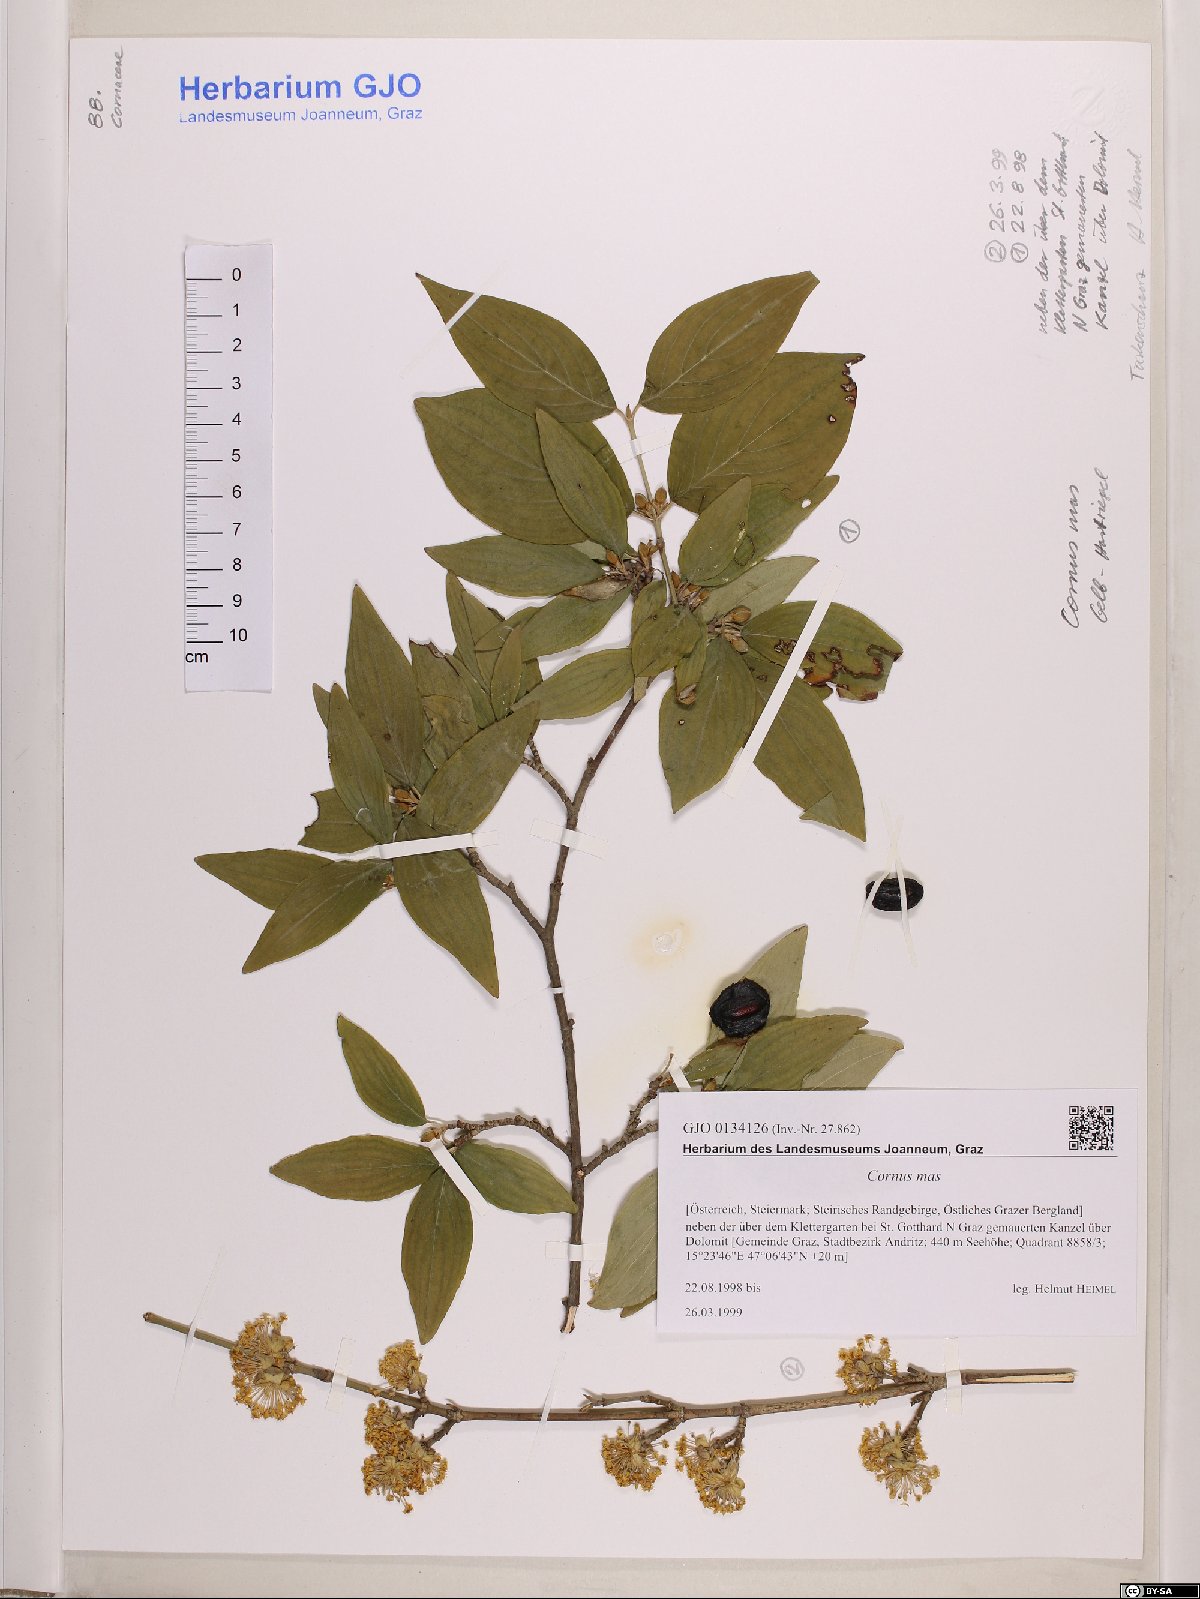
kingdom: Plantae
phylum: Tracheophyta
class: Magnoliopsida
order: Cornales
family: Cornaceae
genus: Cornus
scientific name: Cornus mas
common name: Cornelian-cherry
